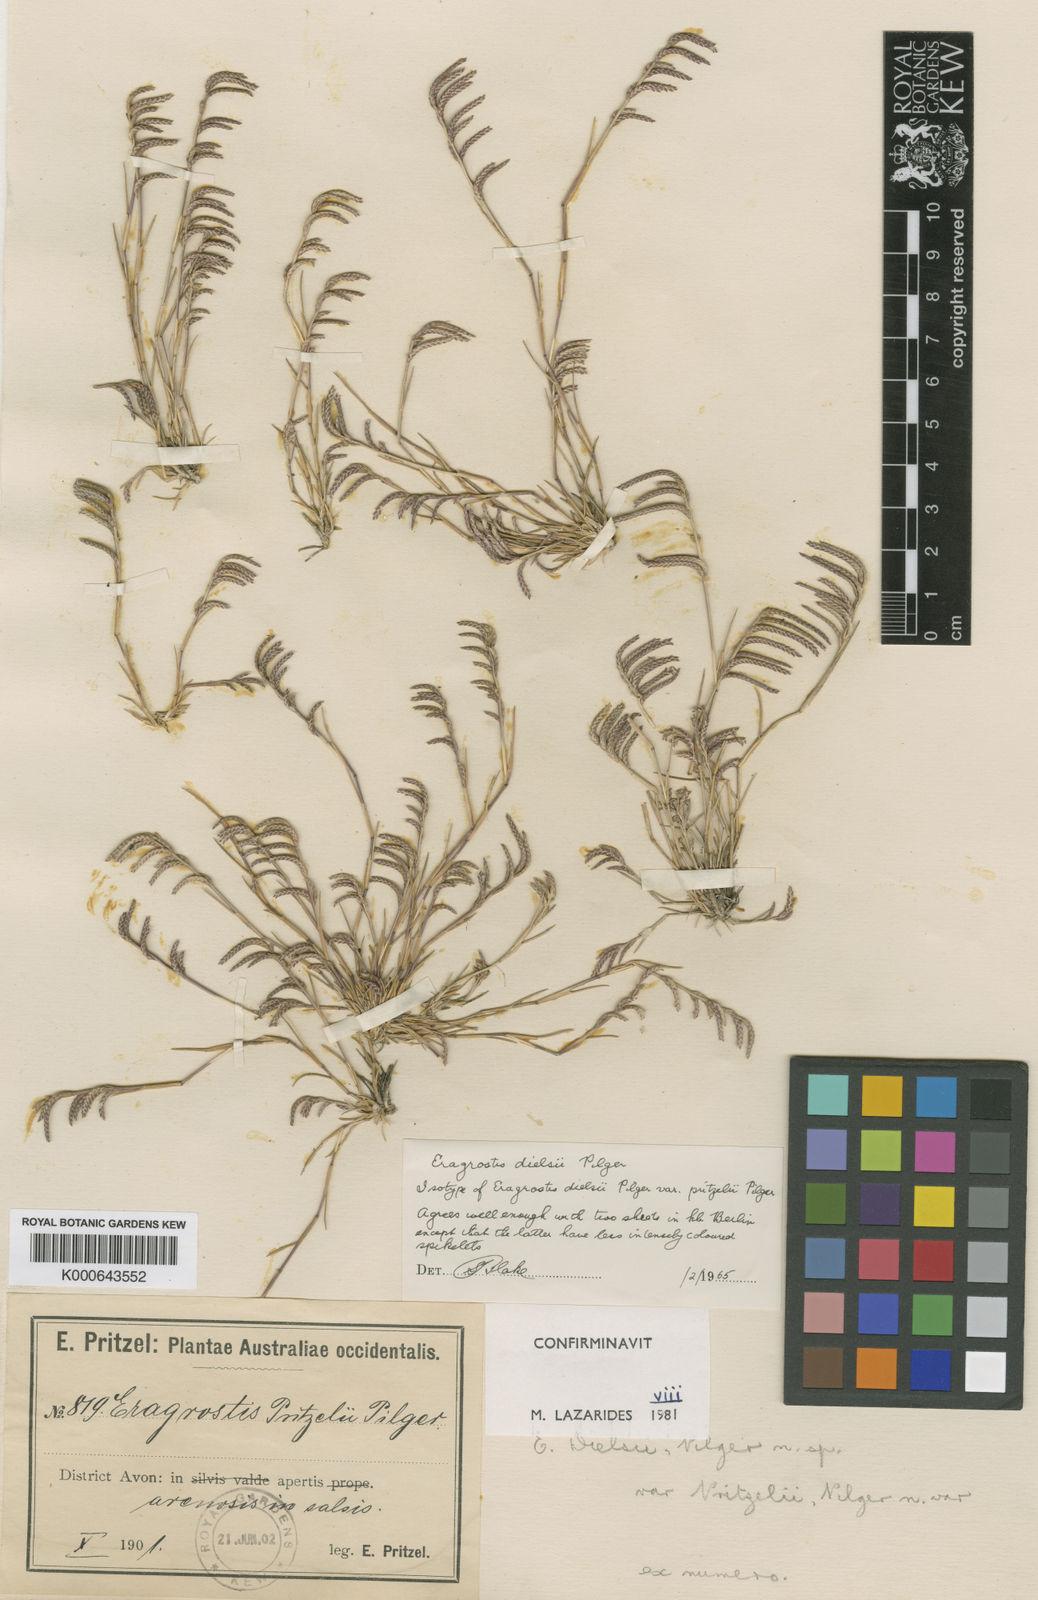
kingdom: Plantae
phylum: Tracheophyta
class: Liliopsida
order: Poales
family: Poaceae
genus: Eragrostis
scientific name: Eragrostis
